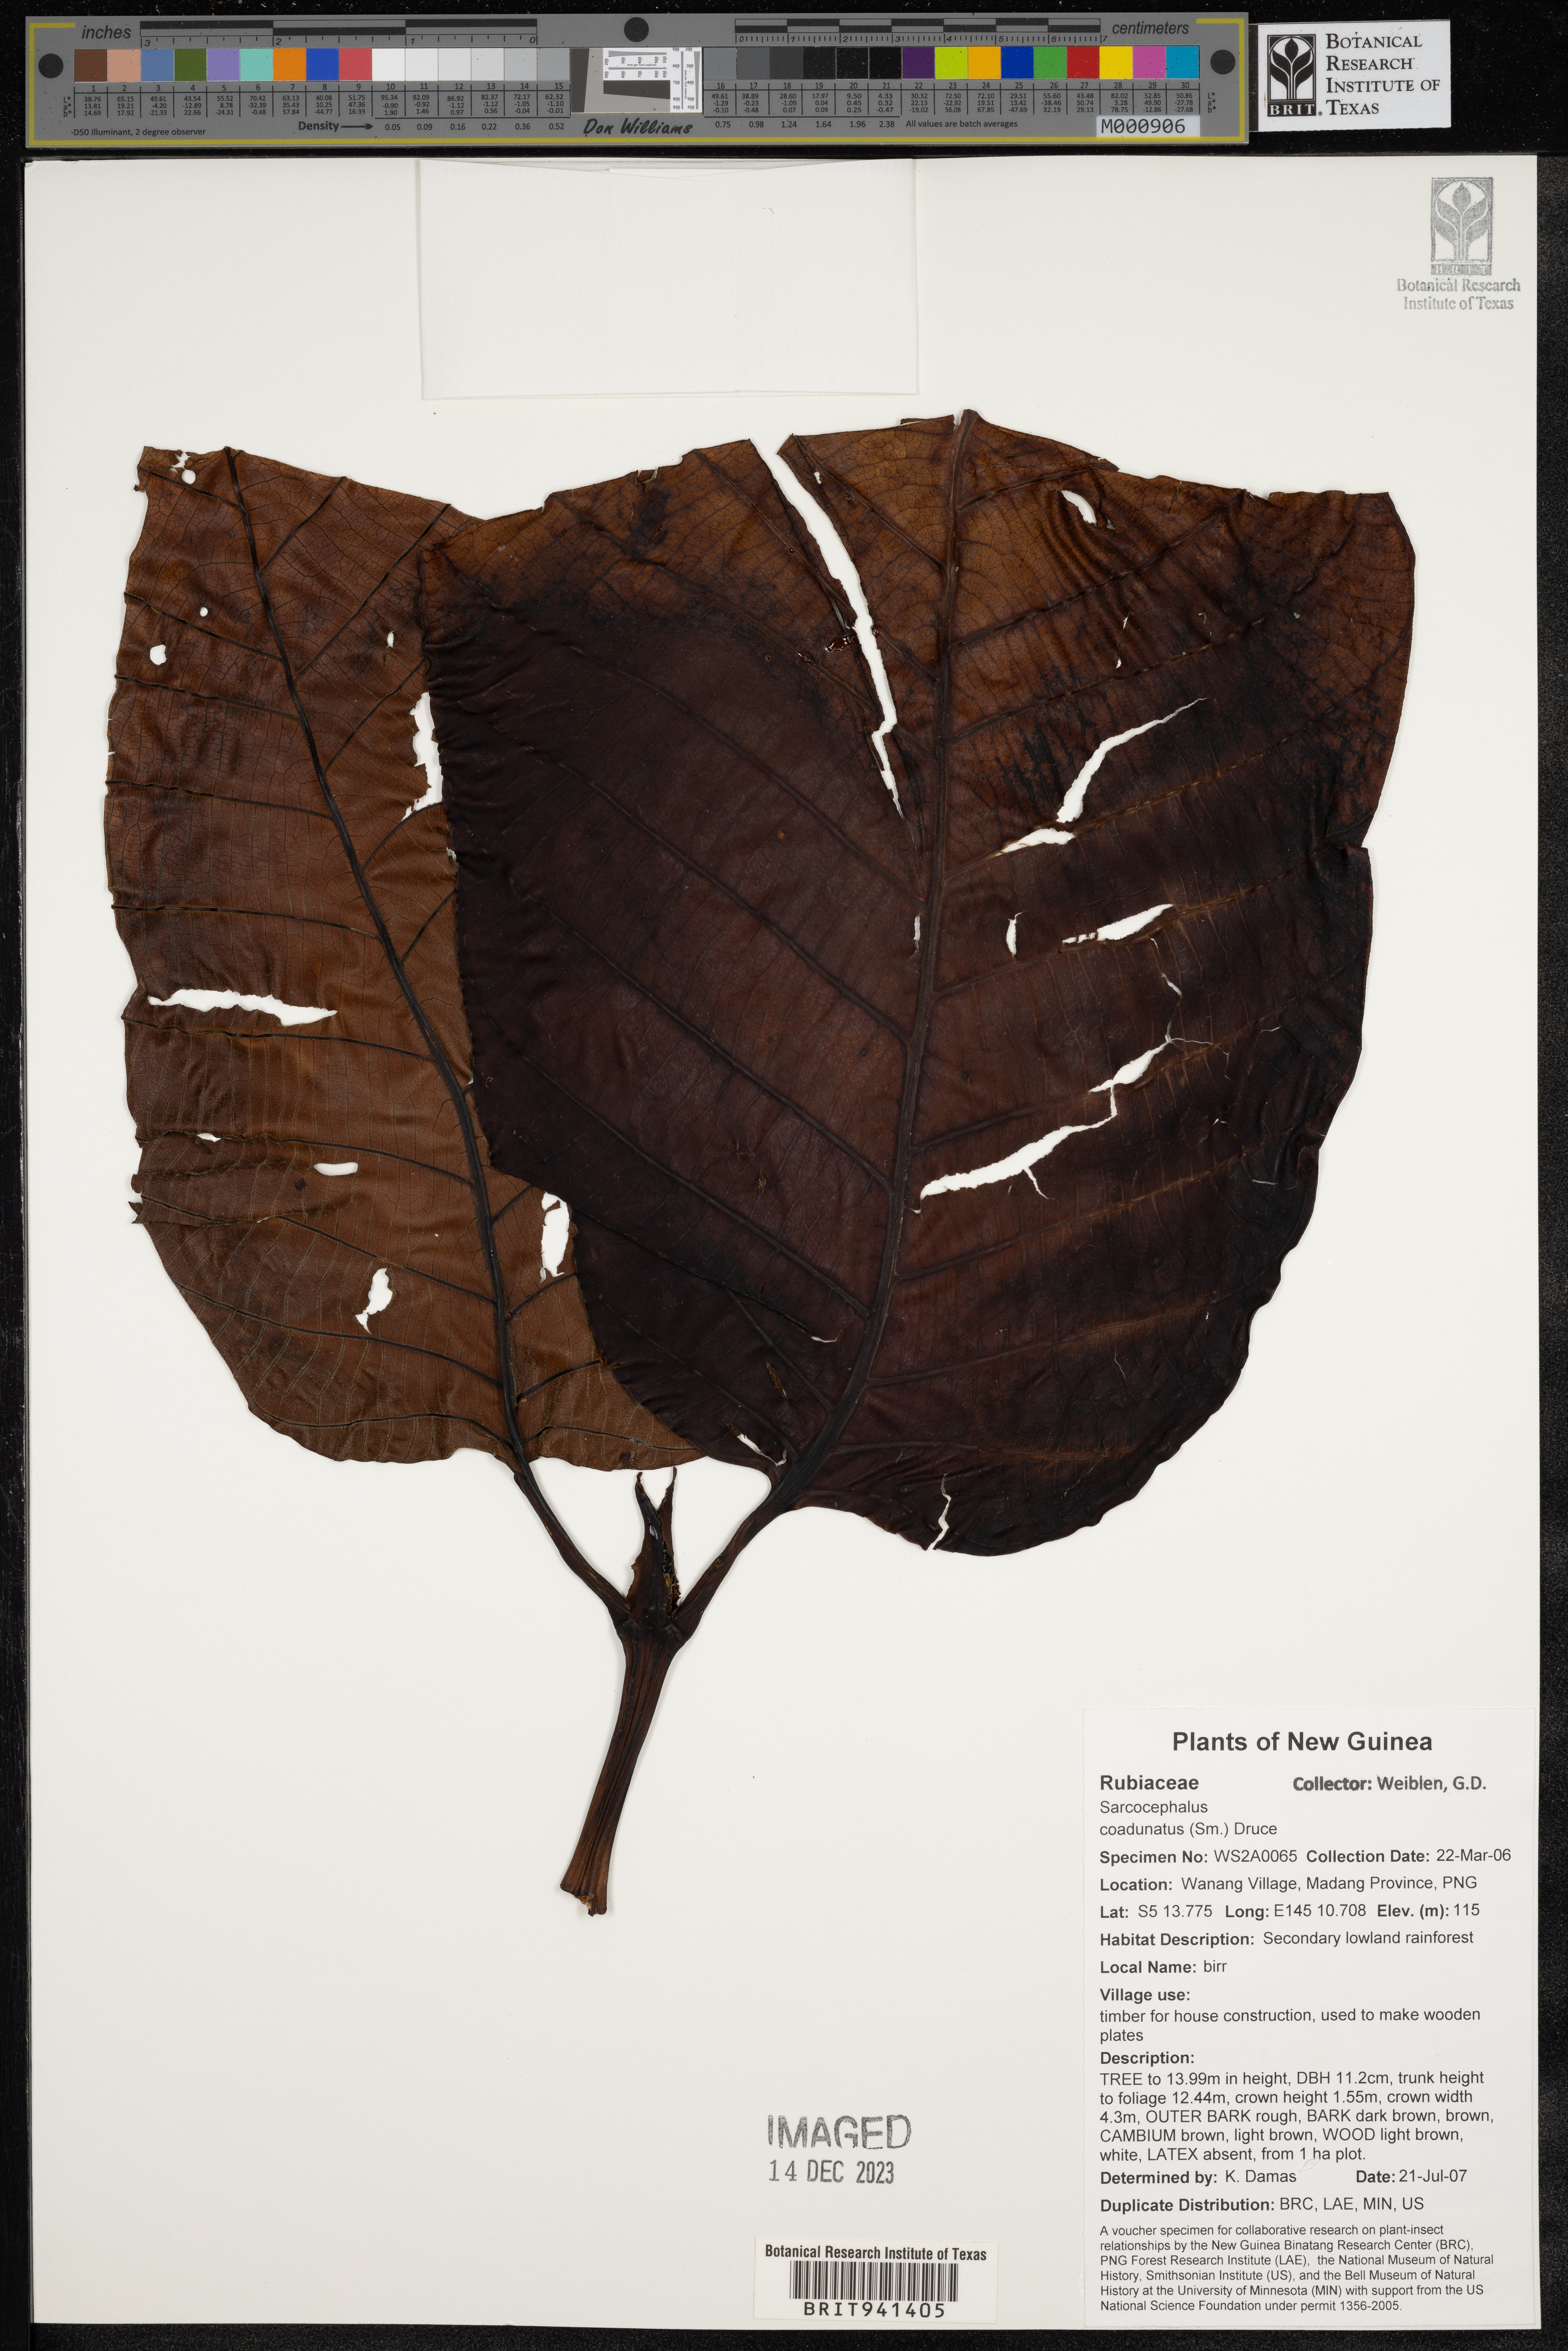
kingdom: Plantae
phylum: Tracheophyta
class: Magnoliopsida
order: Gentianales
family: Rubiaceae
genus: Sarcocephalus
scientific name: Sarcocephalus
